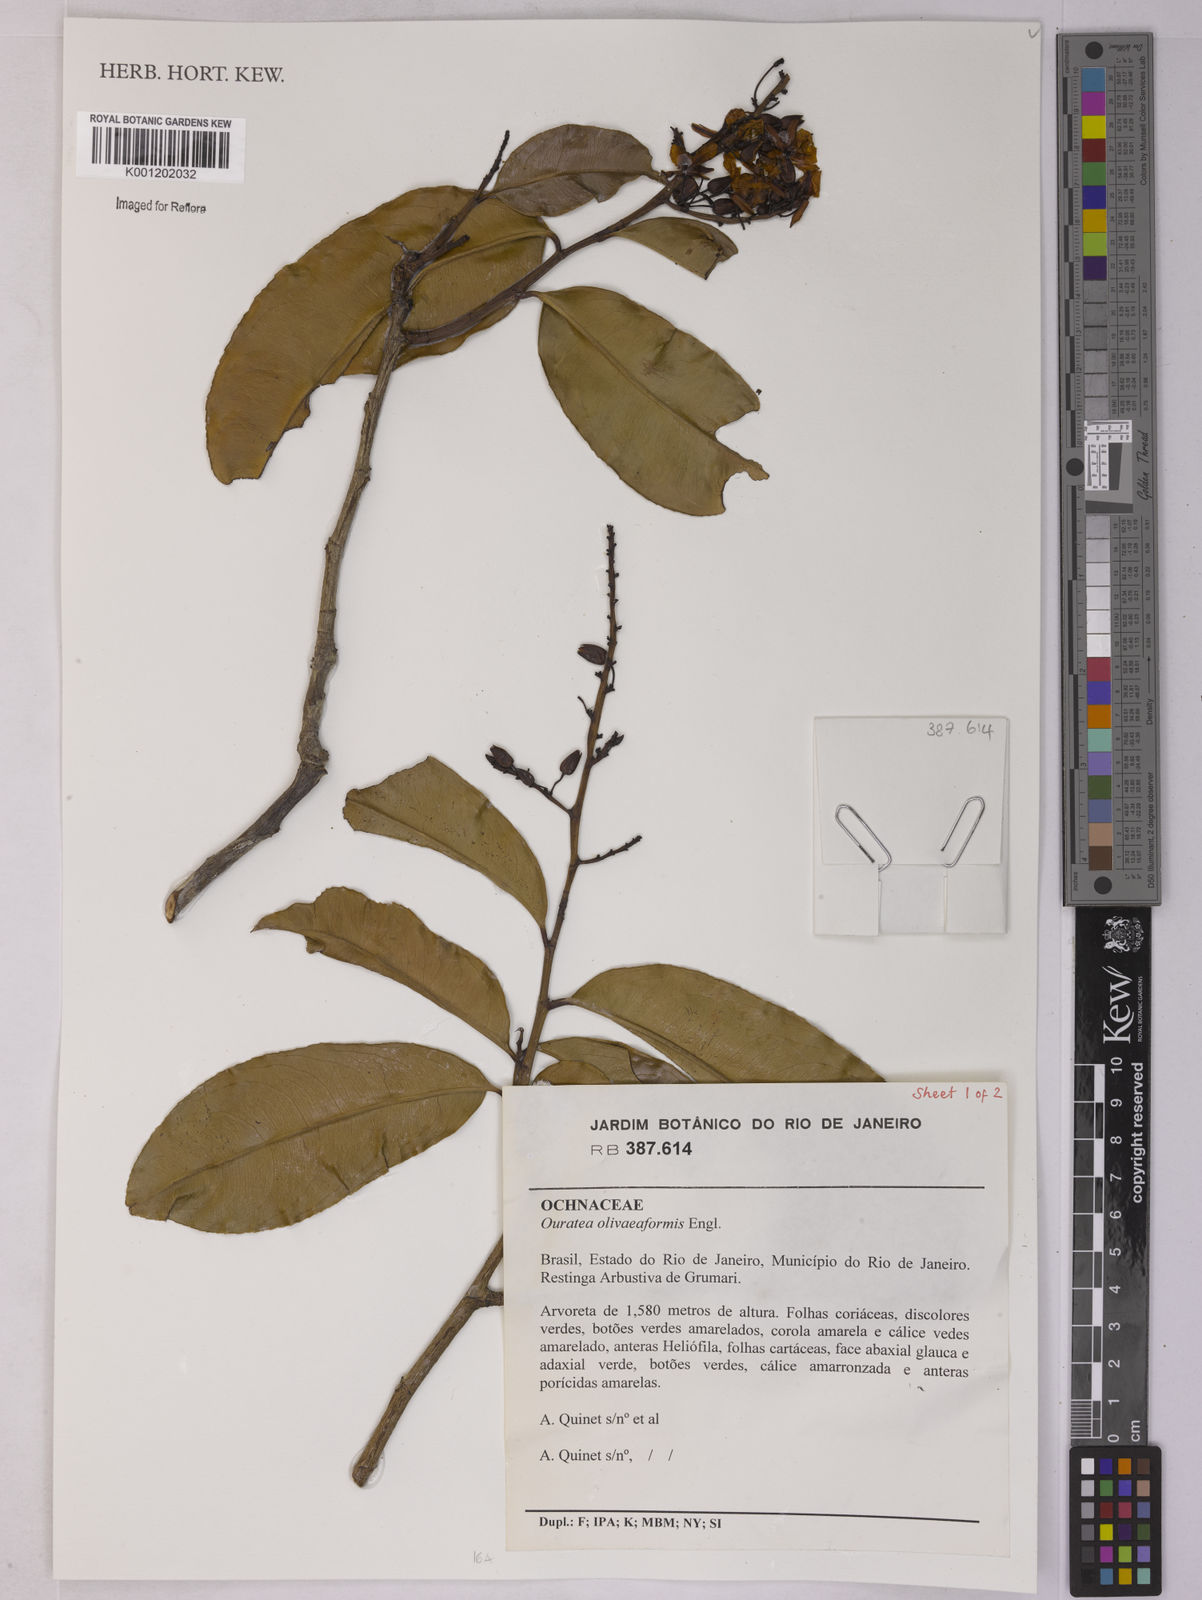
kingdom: Plantae
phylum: Tracheophyta
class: Magnoliopsida
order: Malpighiales
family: Ochnaceae
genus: Ouratea
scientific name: Ouratea oliviformis
